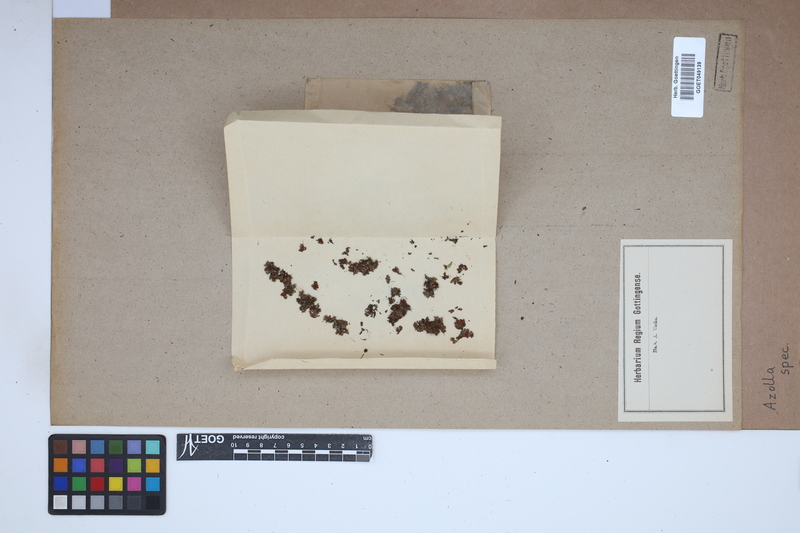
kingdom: Plantae
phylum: Tracheophyta
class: Polypodiopsida
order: Salviniales
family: Salviniaceae
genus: Azolla
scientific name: Azolla
